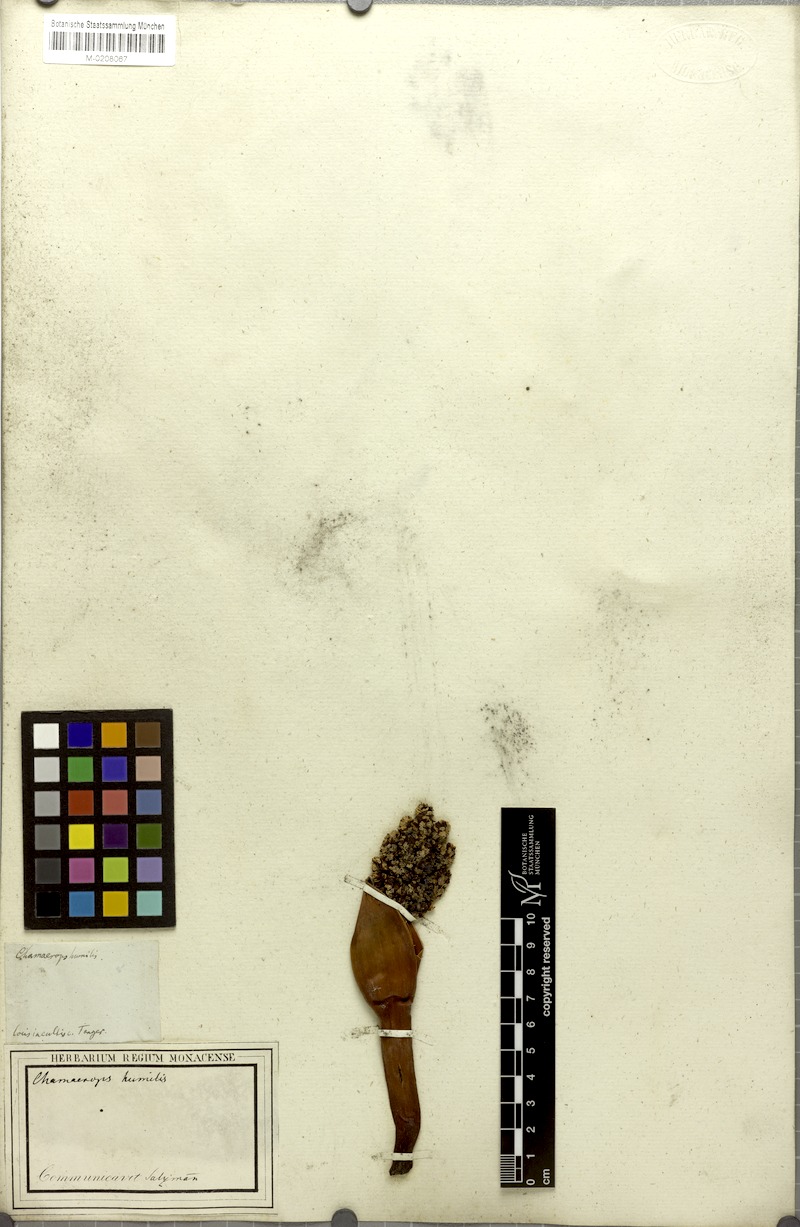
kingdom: Plantae
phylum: Tracheophyta
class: Liliopsida
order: Arecales
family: Arecaceae
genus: Chamaerops
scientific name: Chamaerops humilis
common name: Dwarf fan palm
